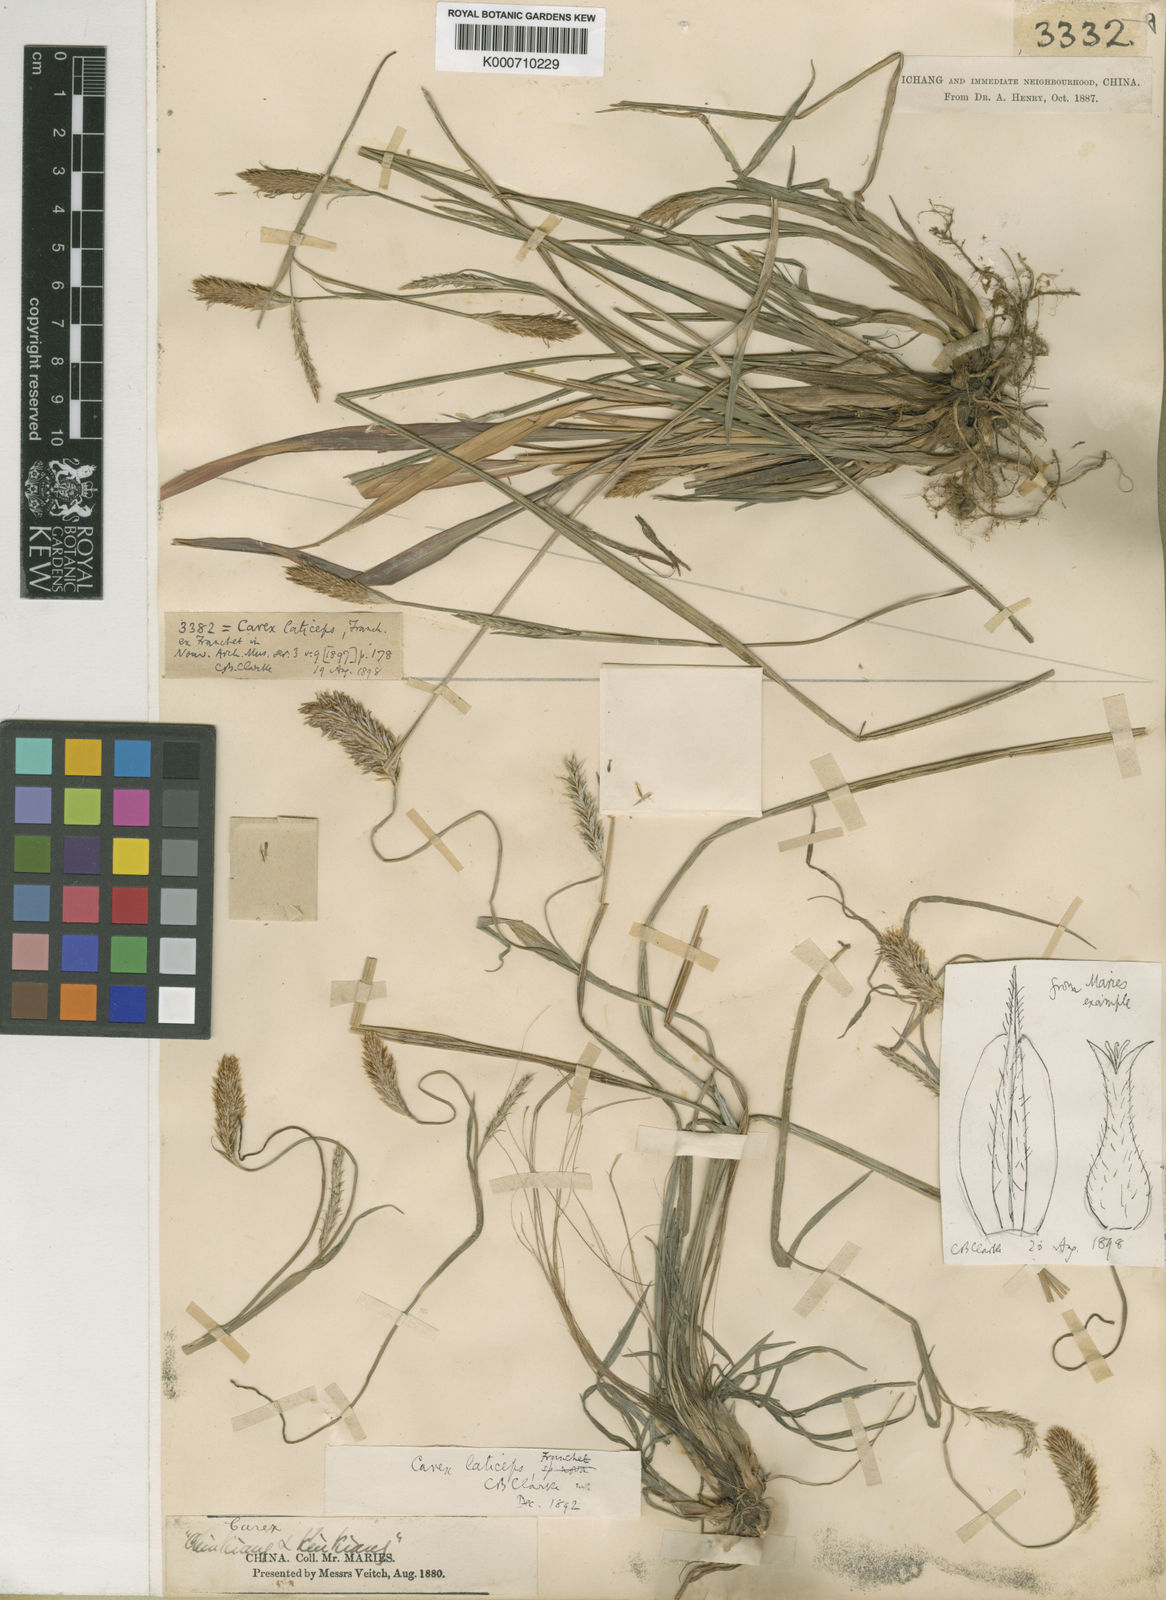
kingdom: Plantae
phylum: Tracheophyta
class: Liliopsida
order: Poales
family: Cyperaceae
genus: Carex
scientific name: Carex sampsonii
